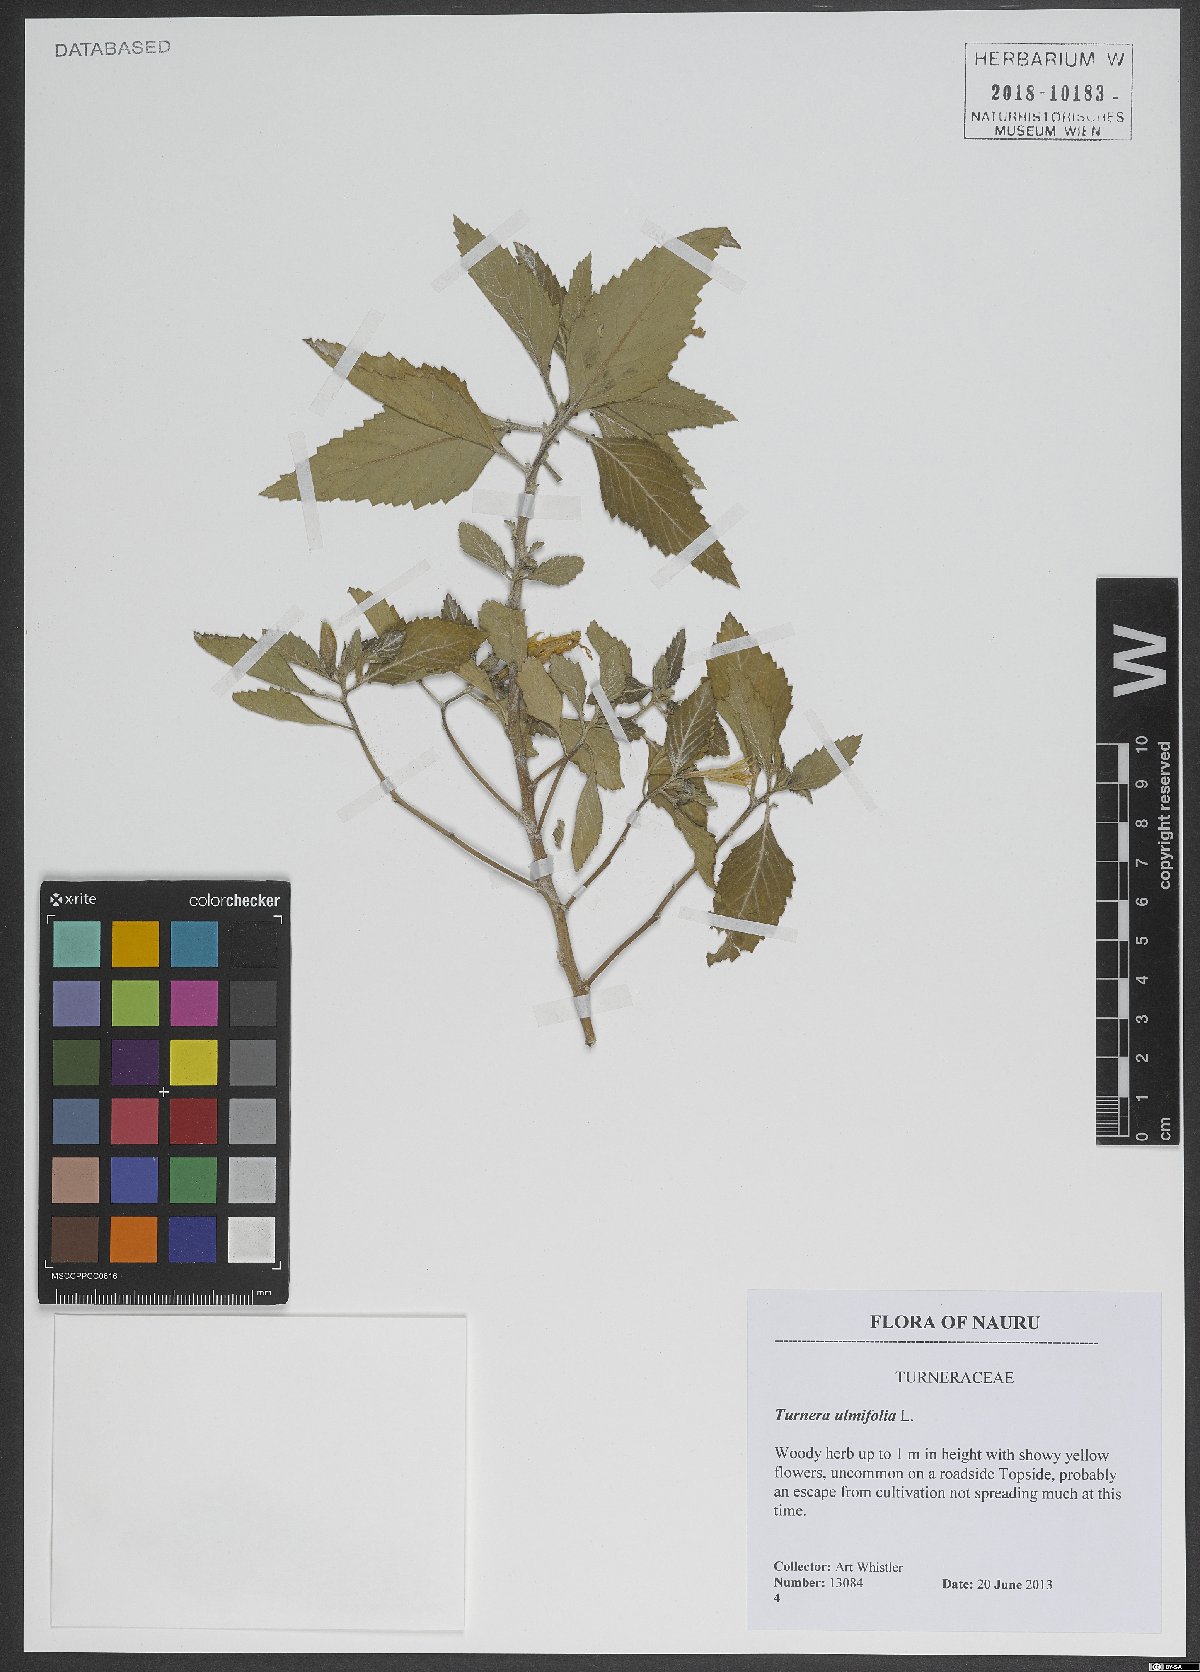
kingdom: Plantae
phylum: Tracheophyta
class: Magnoliopsida
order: Malpighiales
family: Turneraceae
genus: Turnera
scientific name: Turnera ulmifolia
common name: Ramgoat dashalong
